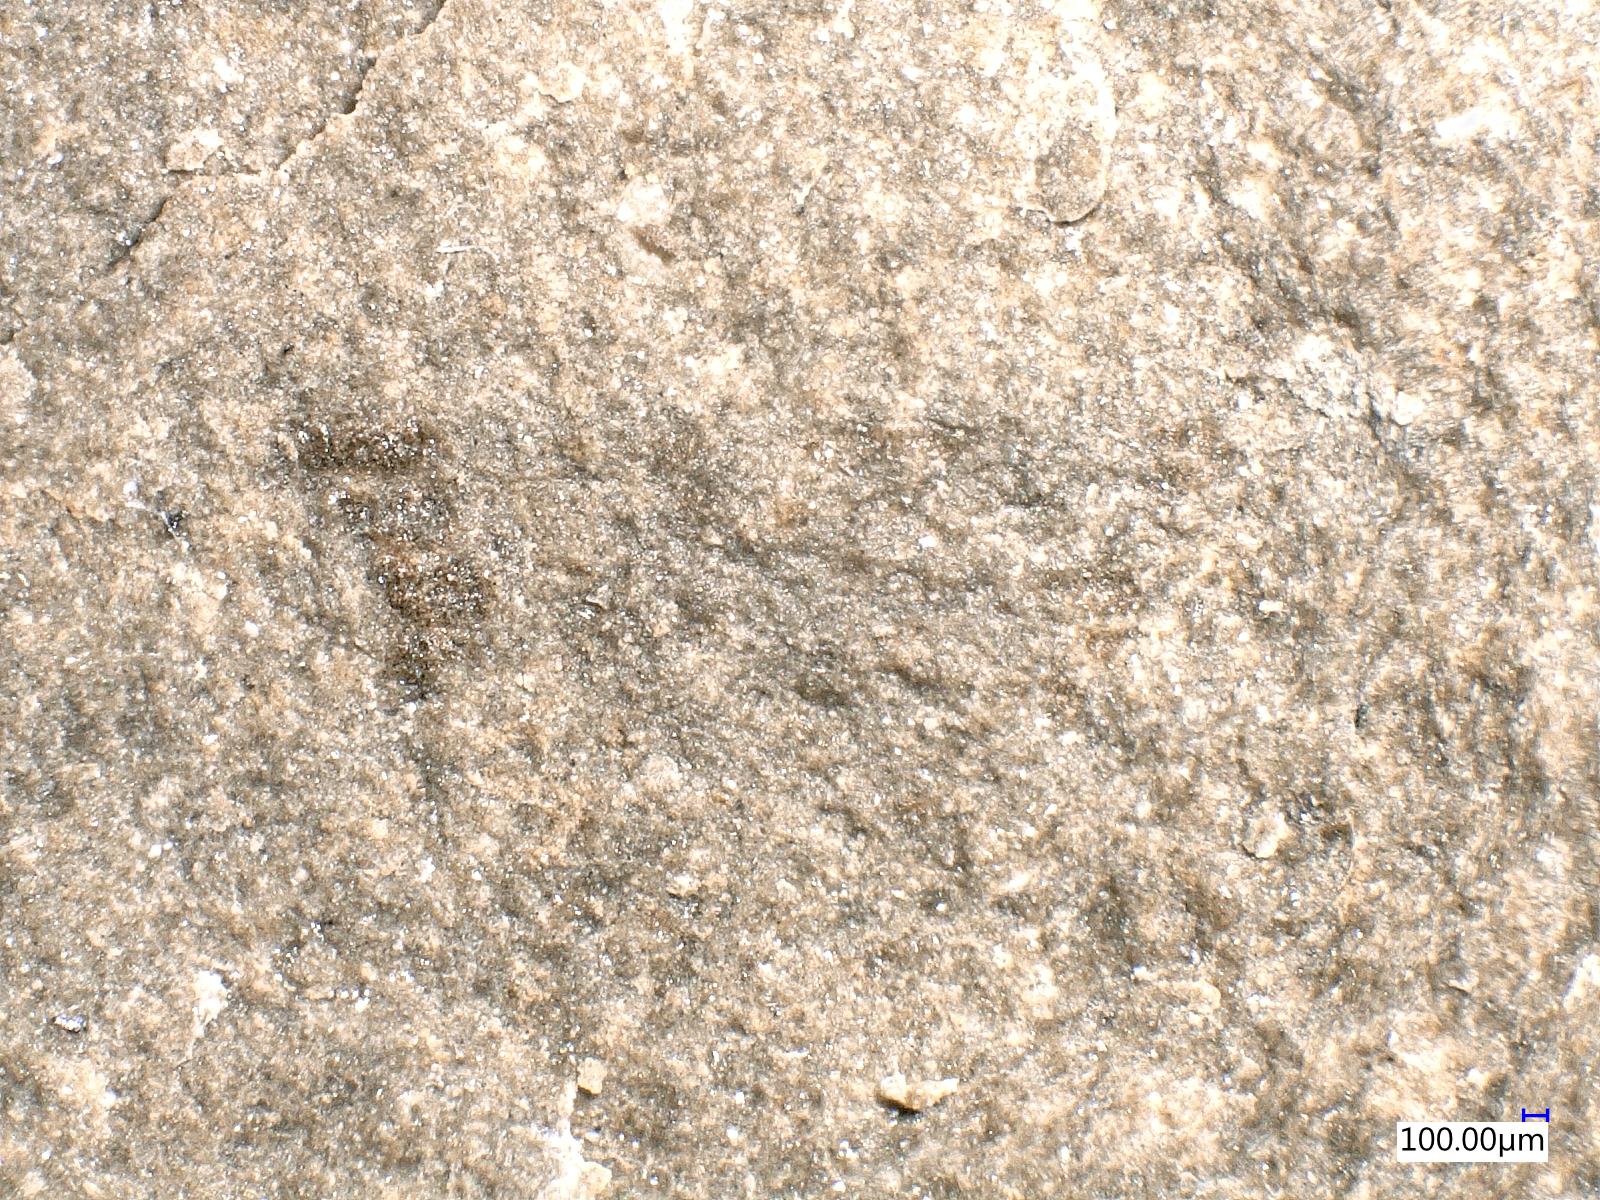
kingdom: Animalia
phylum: Arthropoda
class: Insecta
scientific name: Insecta
